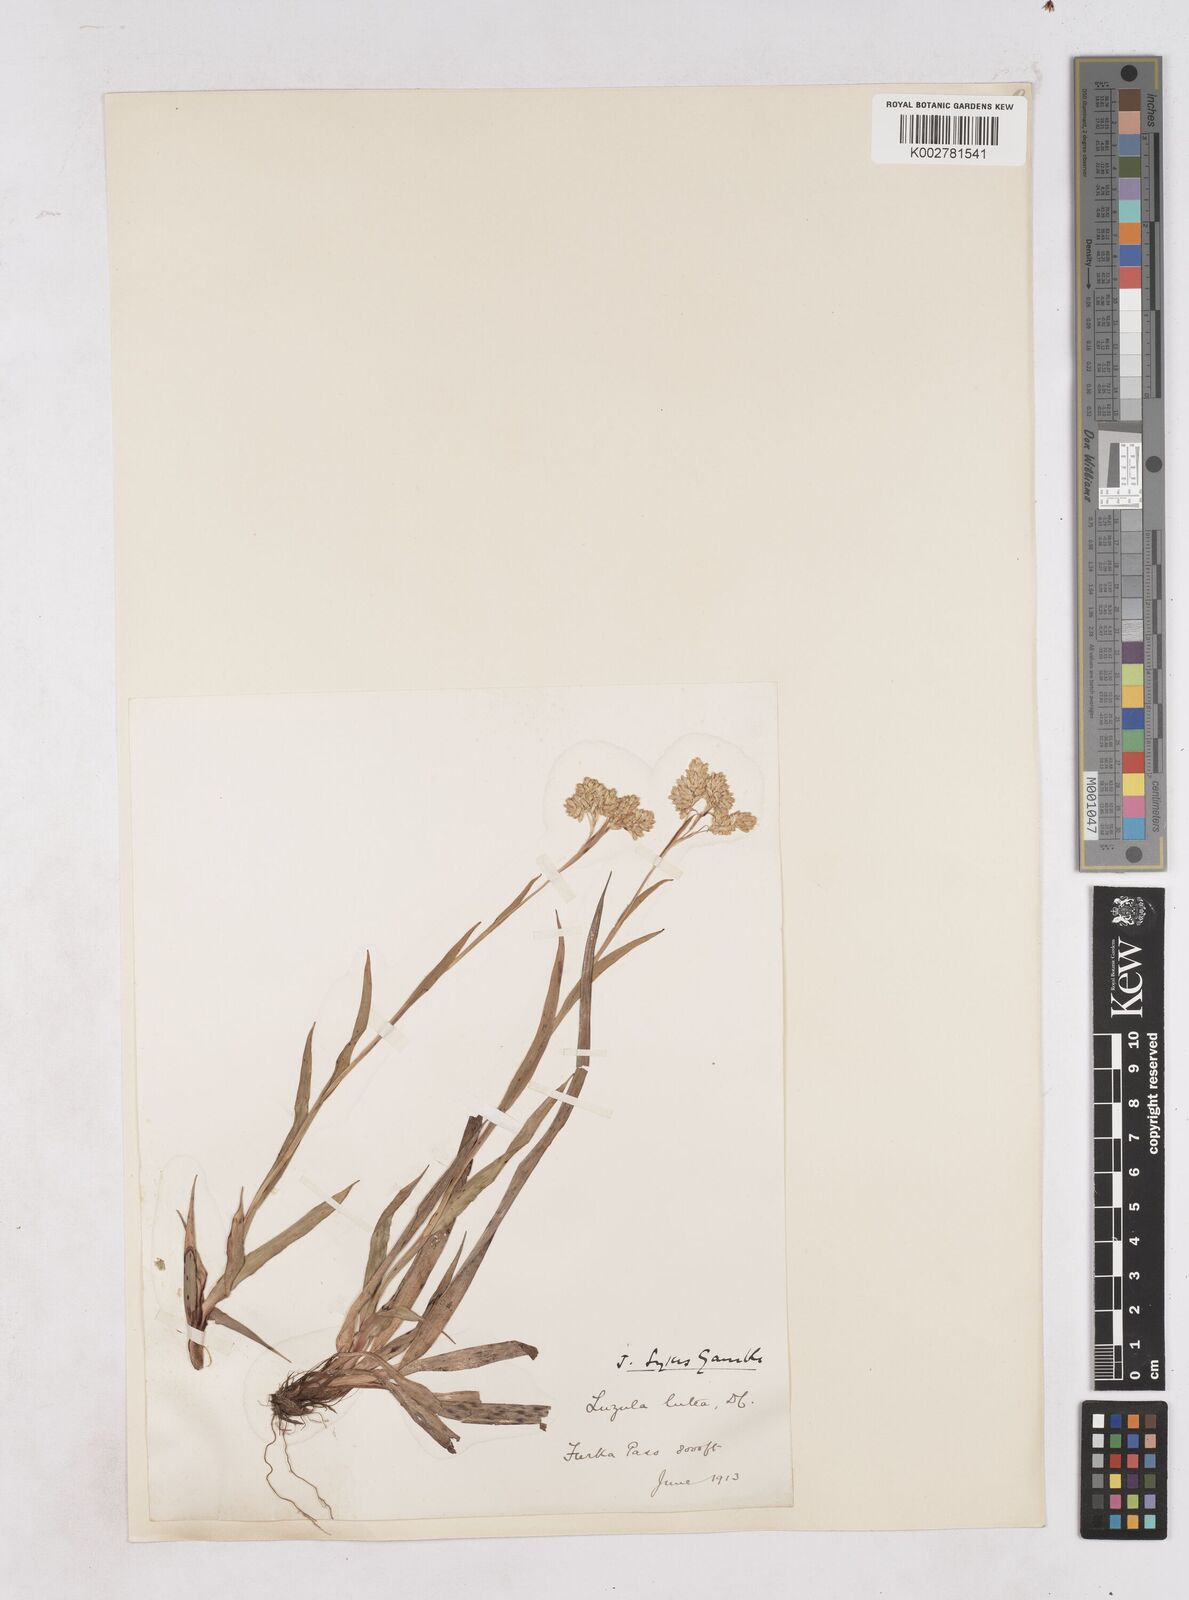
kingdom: Plantae
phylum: Tracheophyta
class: Liliopsida
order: Poales
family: Juncaceae
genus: Luzula
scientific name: Luzula lutea
